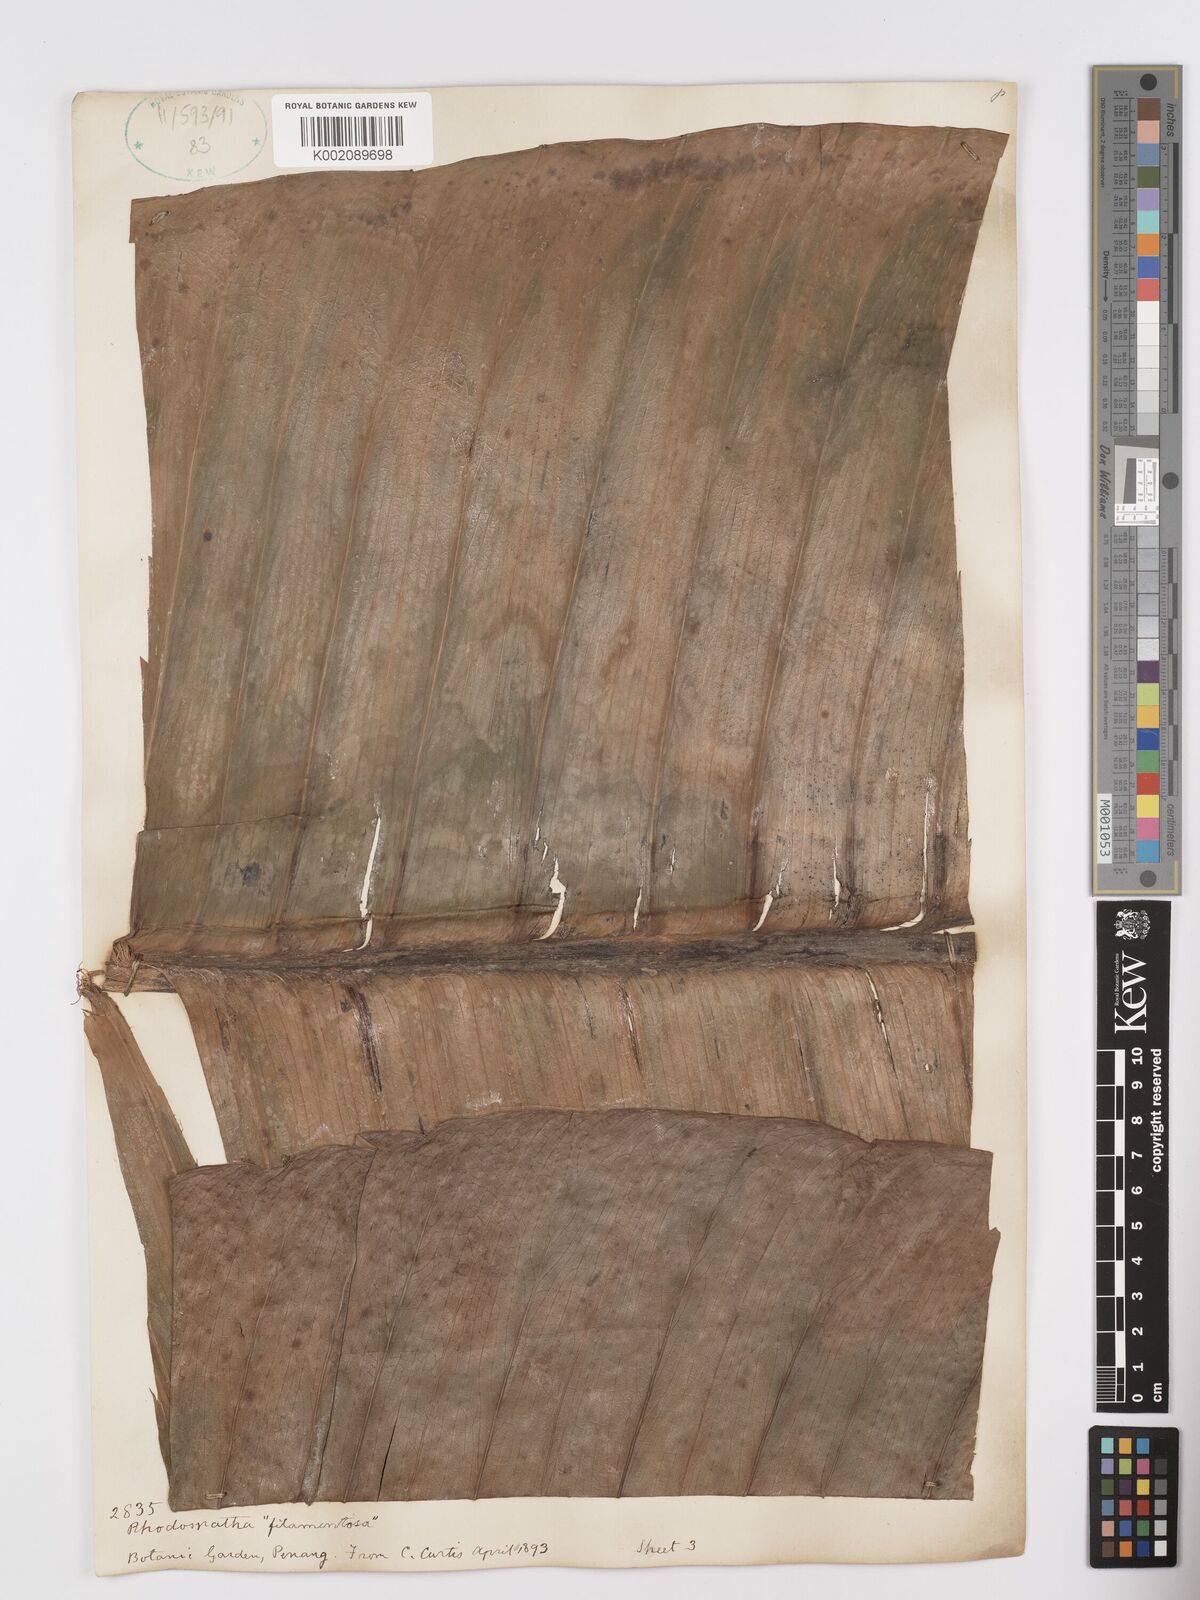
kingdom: Plantae
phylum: Tracheophyta
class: Liliopsida
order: Alismatales
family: Araceae
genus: Rhodospatha
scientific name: Rhodospatha moritziana
